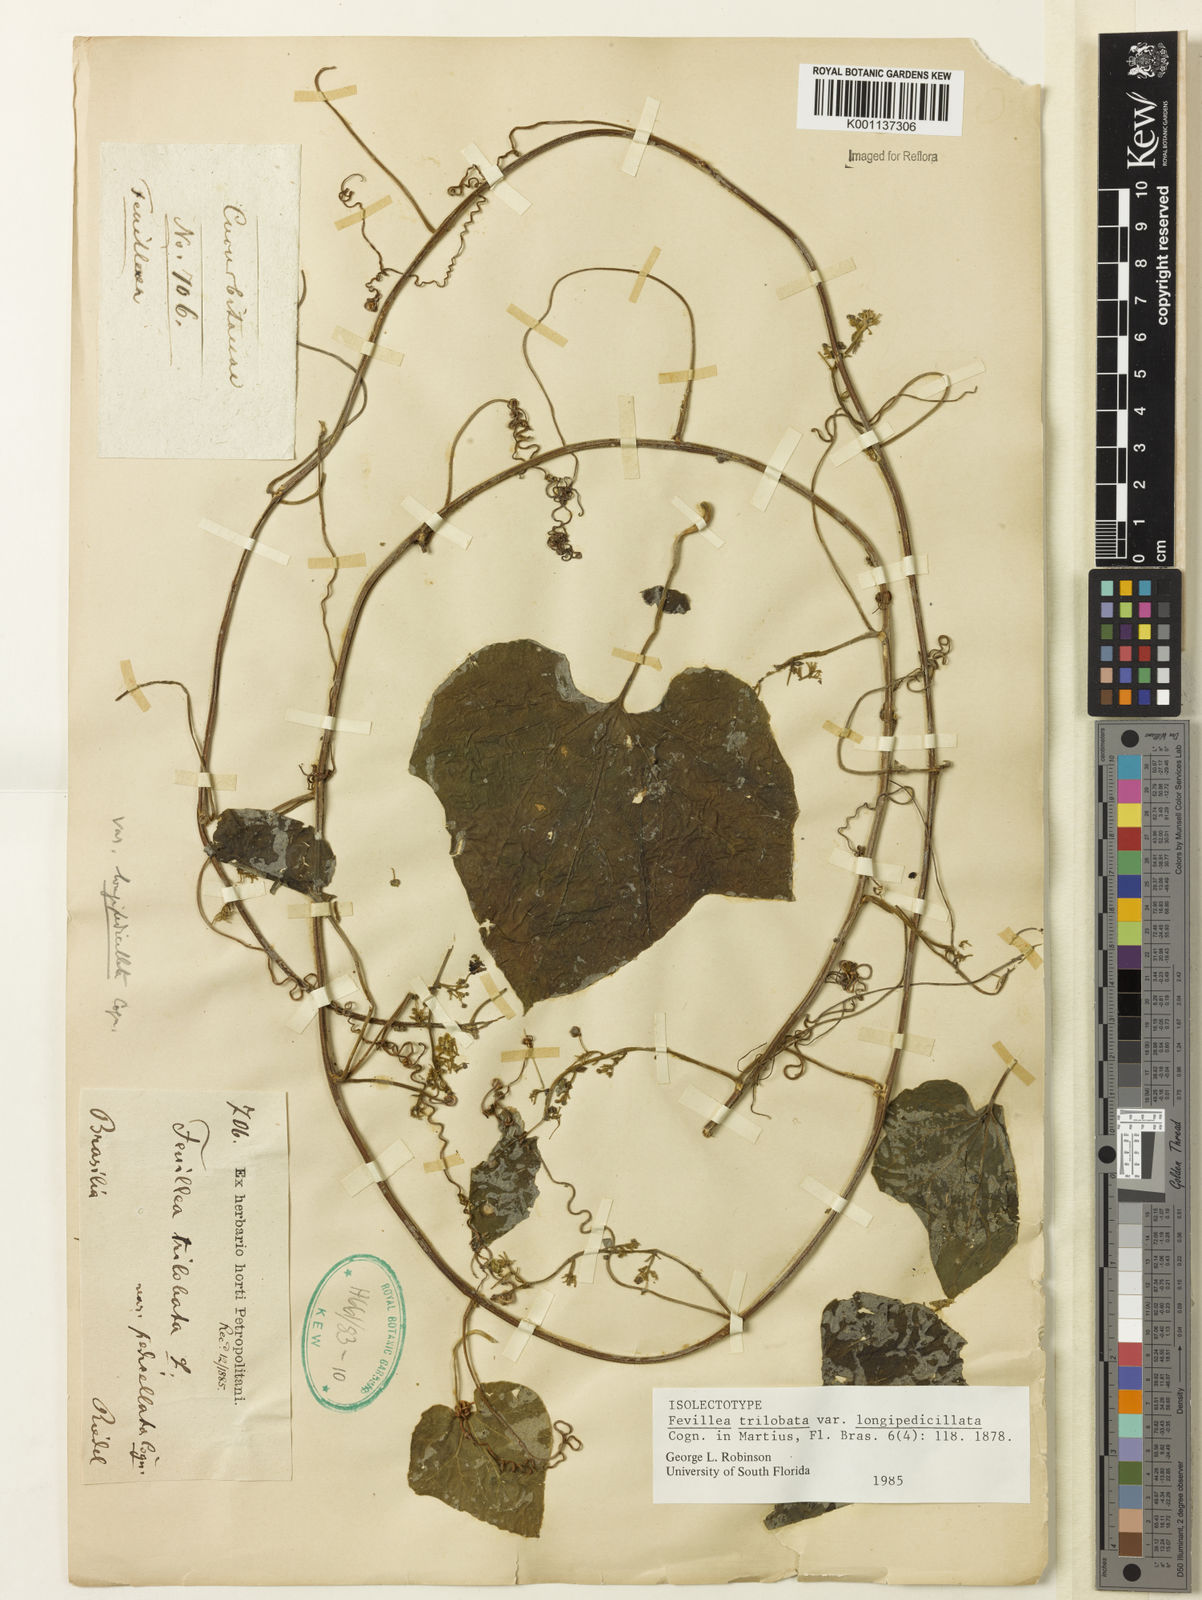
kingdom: Plantae
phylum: Tracheophyta
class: Magnoliopsida
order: Cucurbitales
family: Cucurbitaceae
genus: Fevillea
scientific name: Fevillea trilobata
